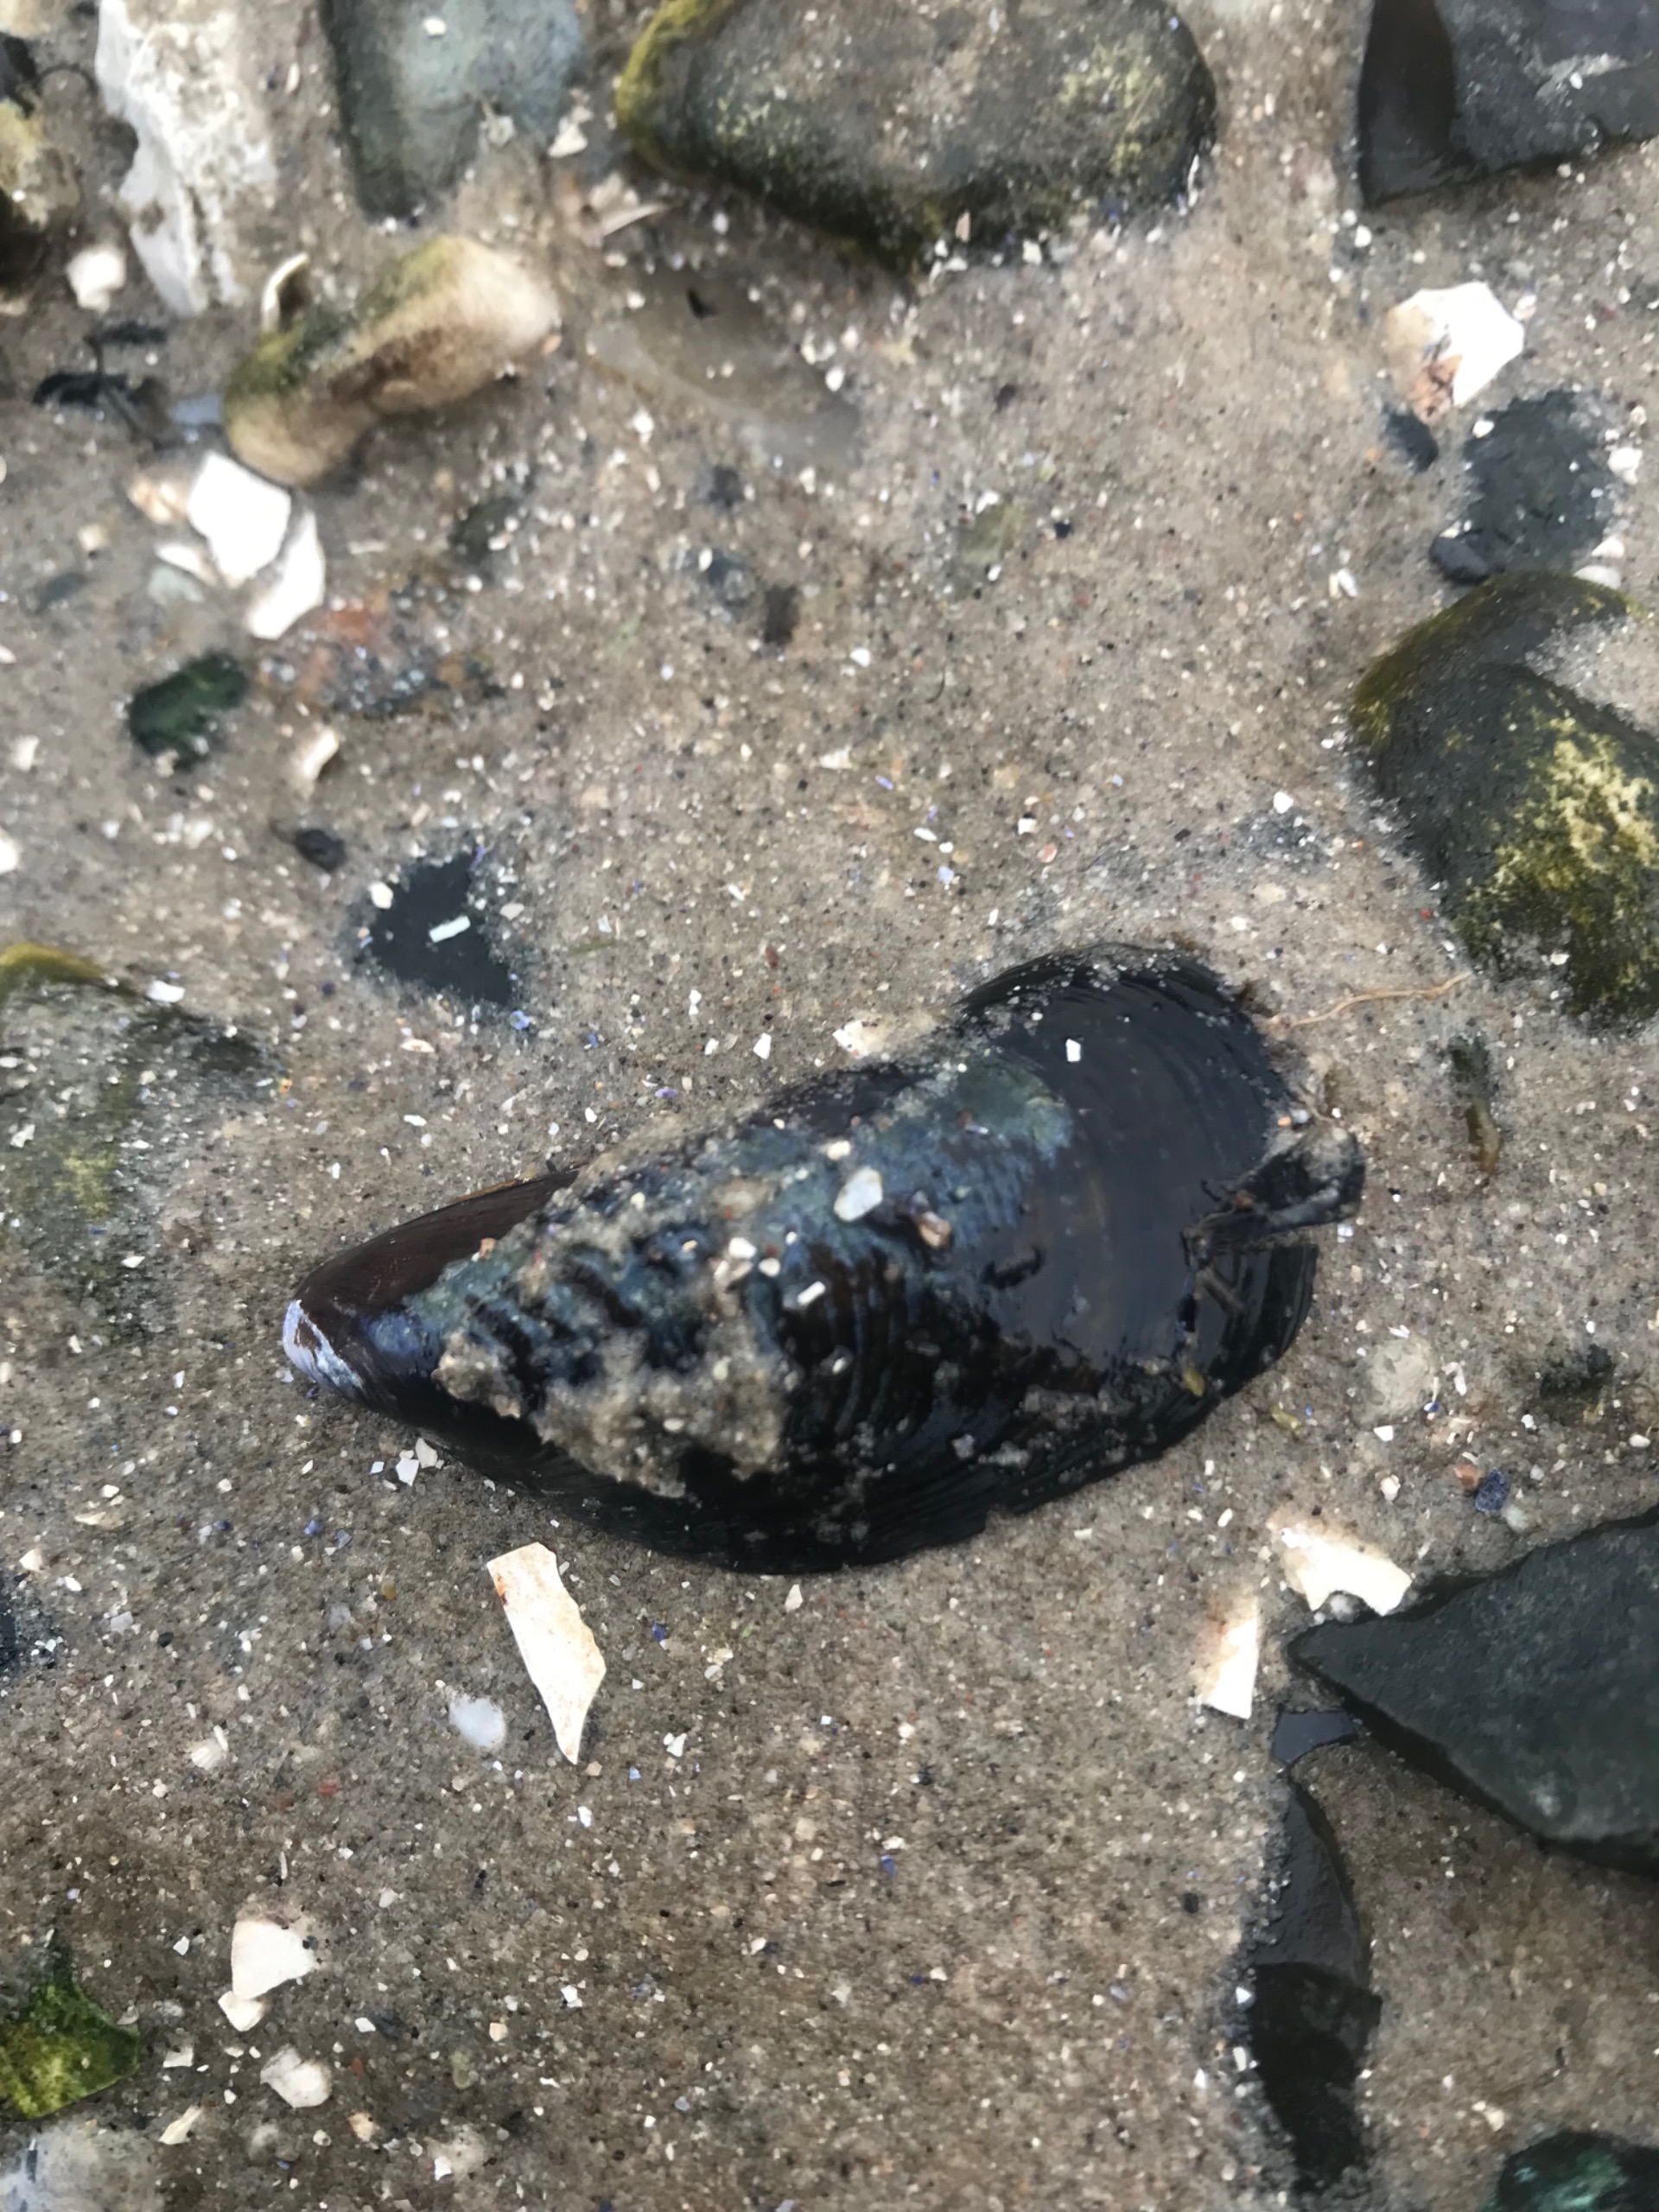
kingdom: Animalia
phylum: Mollusca
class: Bivalvia
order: Mytilida
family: Mytilidae
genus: Mytilus
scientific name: Mytilus edulis
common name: Blåmusling
